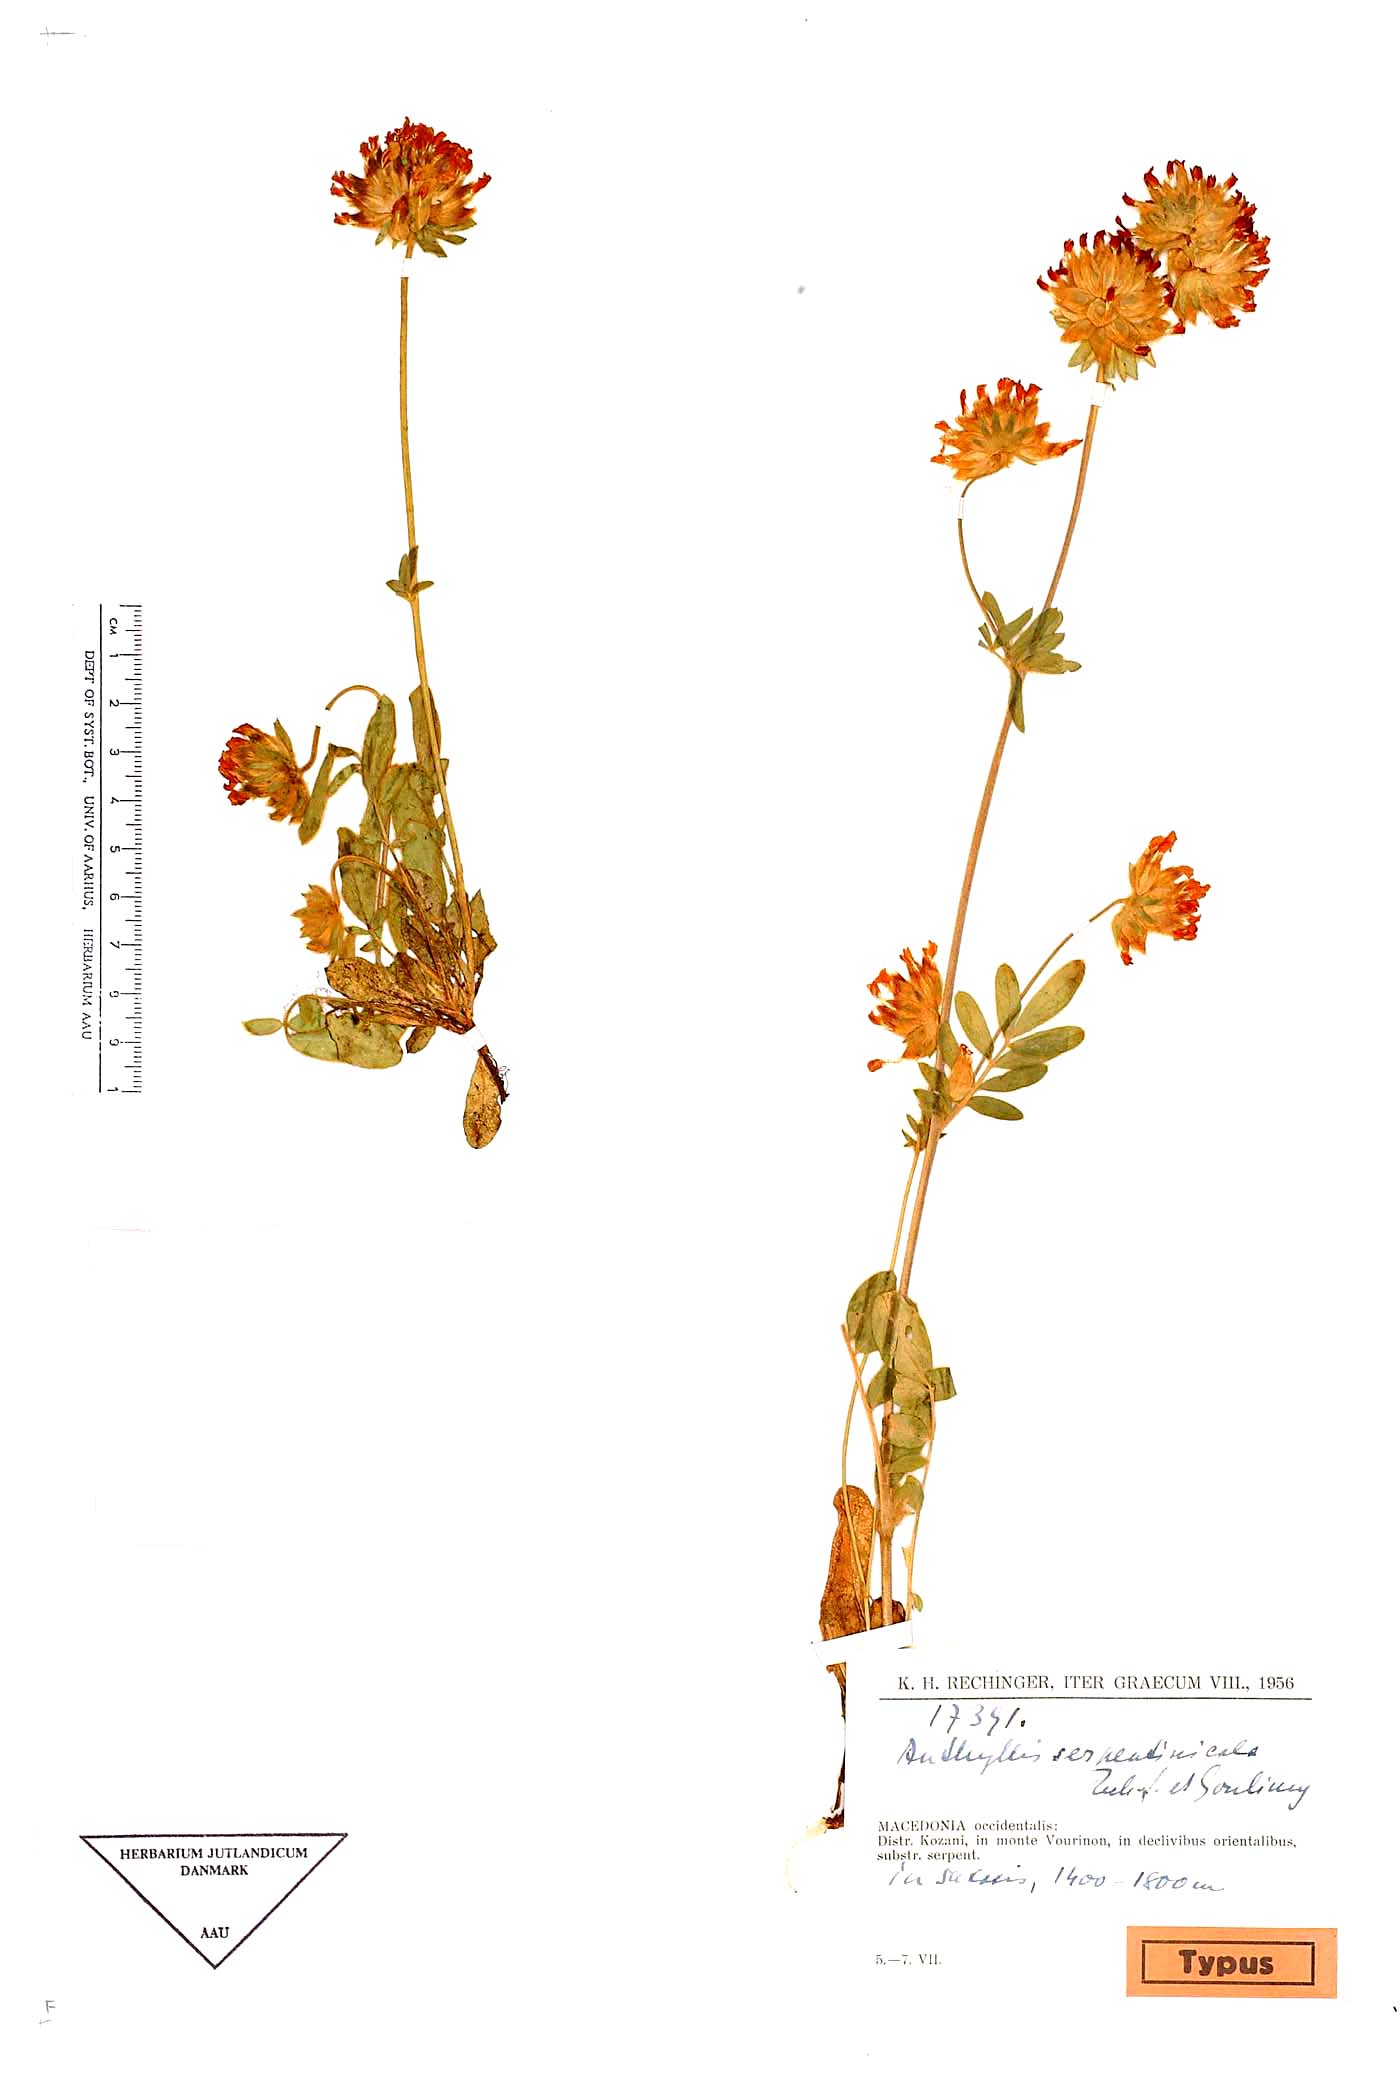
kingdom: Plantae
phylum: Tracheophyta
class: Magnoliopsida
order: Fabales
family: Fabaceae
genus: Anthyllis
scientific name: Anthyllis vulneraria
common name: Kidney vetch
